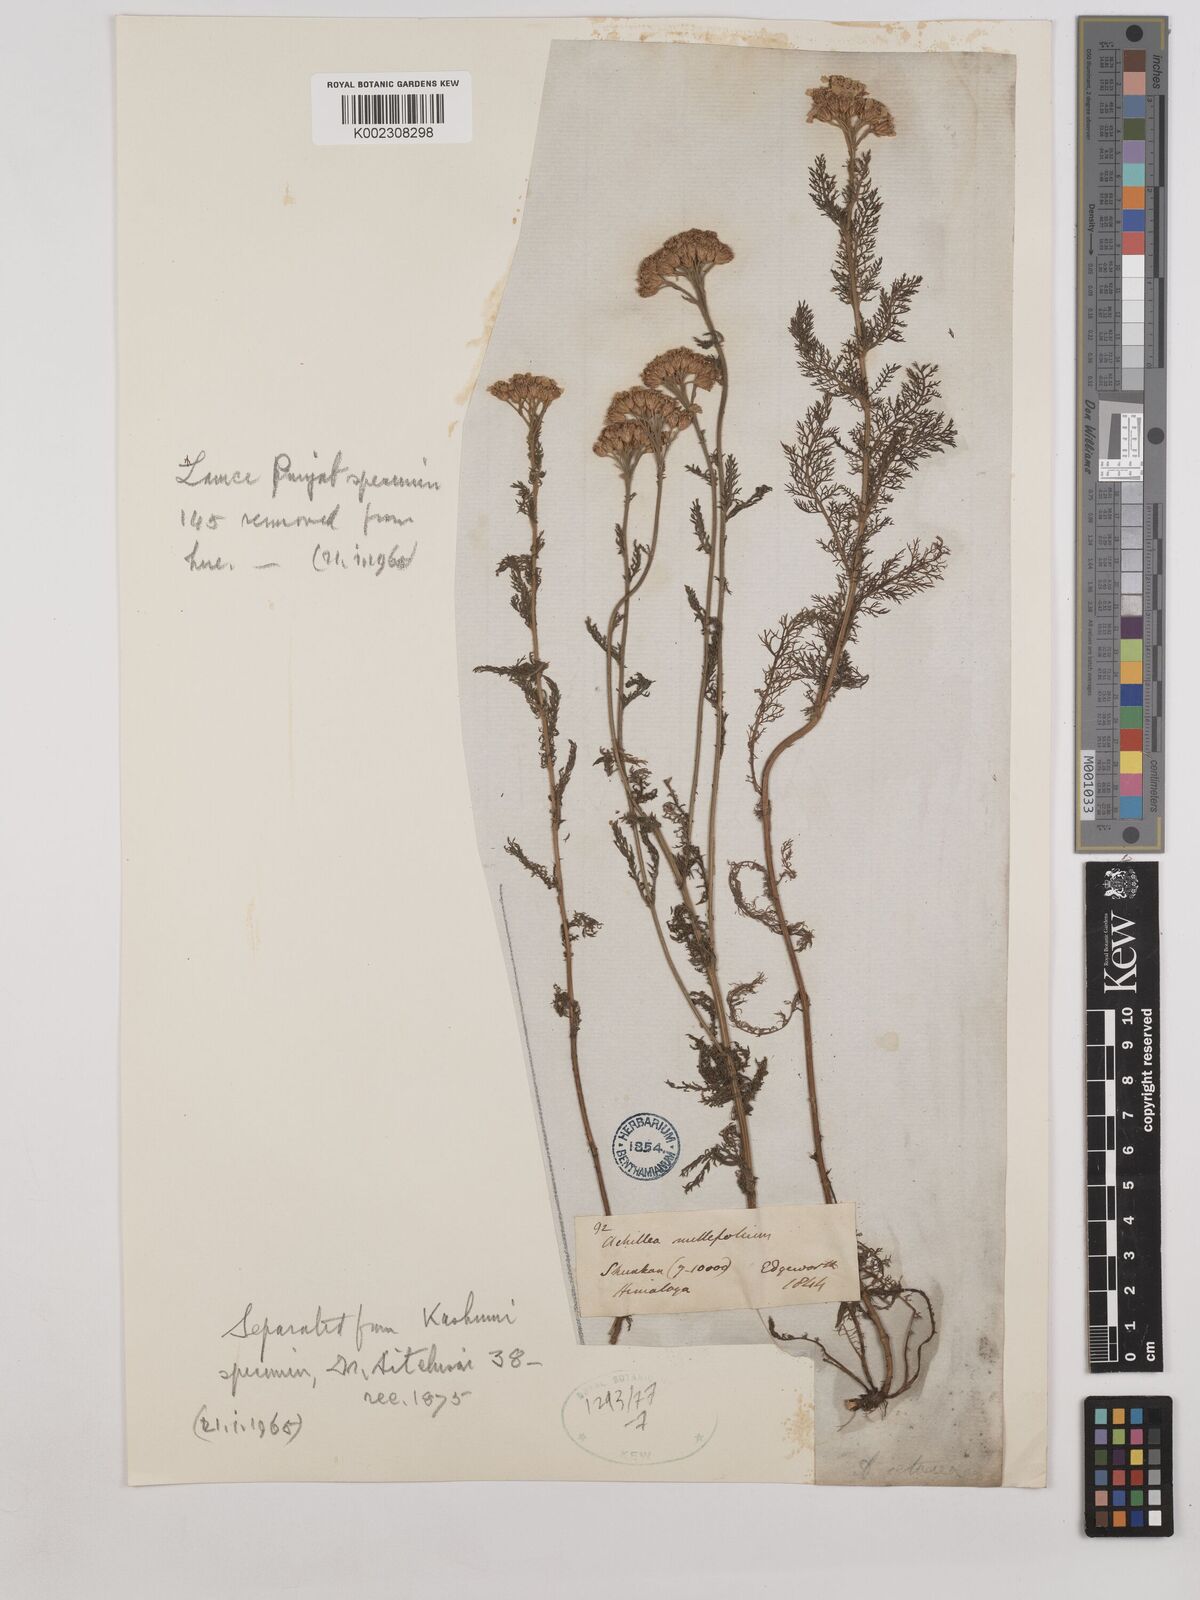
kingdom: Plantae
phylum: Tracheophyta
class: Magnoliopsida
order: Asterales
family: Asteraceae
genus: Achillea
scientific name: Achillea millefolium
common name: Yarrow
